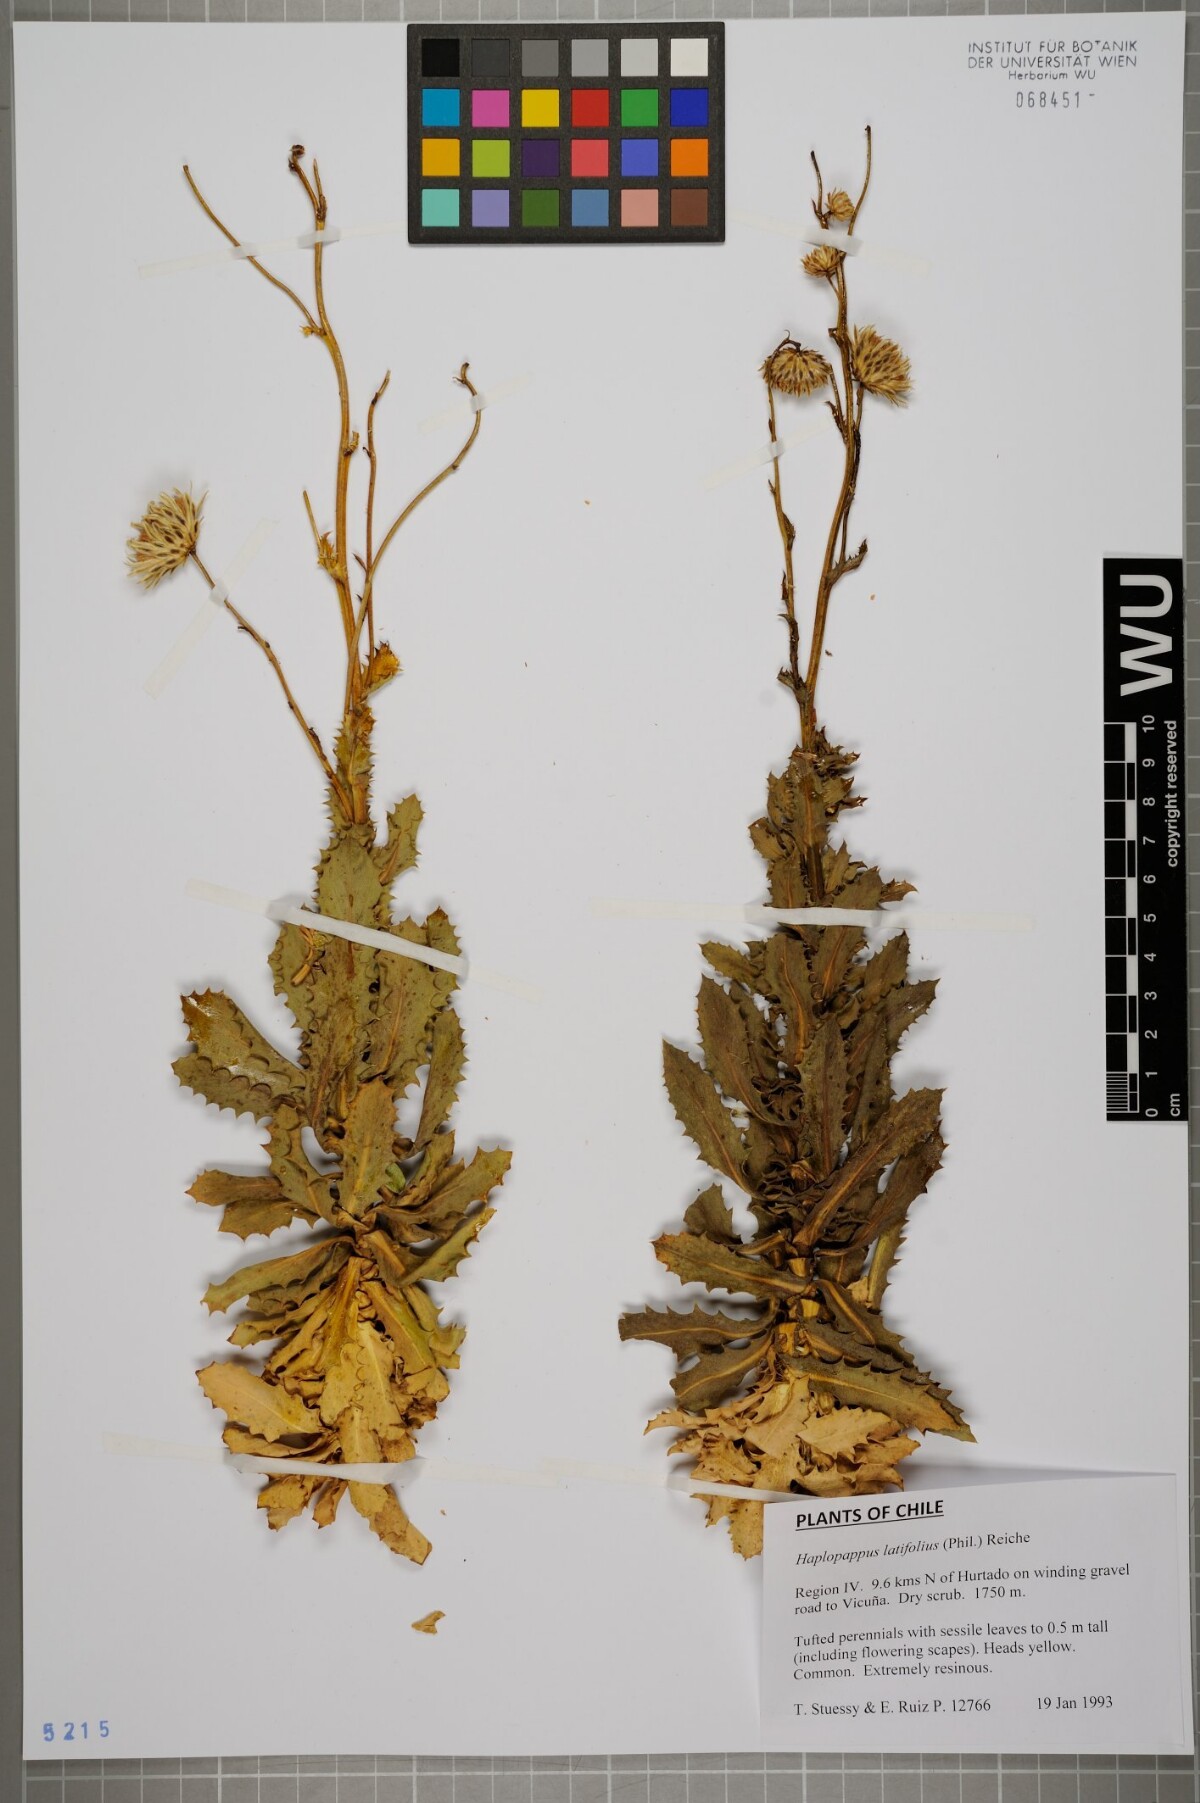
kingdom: Plantae
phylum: Tracheophyta
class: Magnoliopsida
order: Asterales
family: Asteraceae
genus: Haplopappus
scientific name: Haplopappus remyanus
